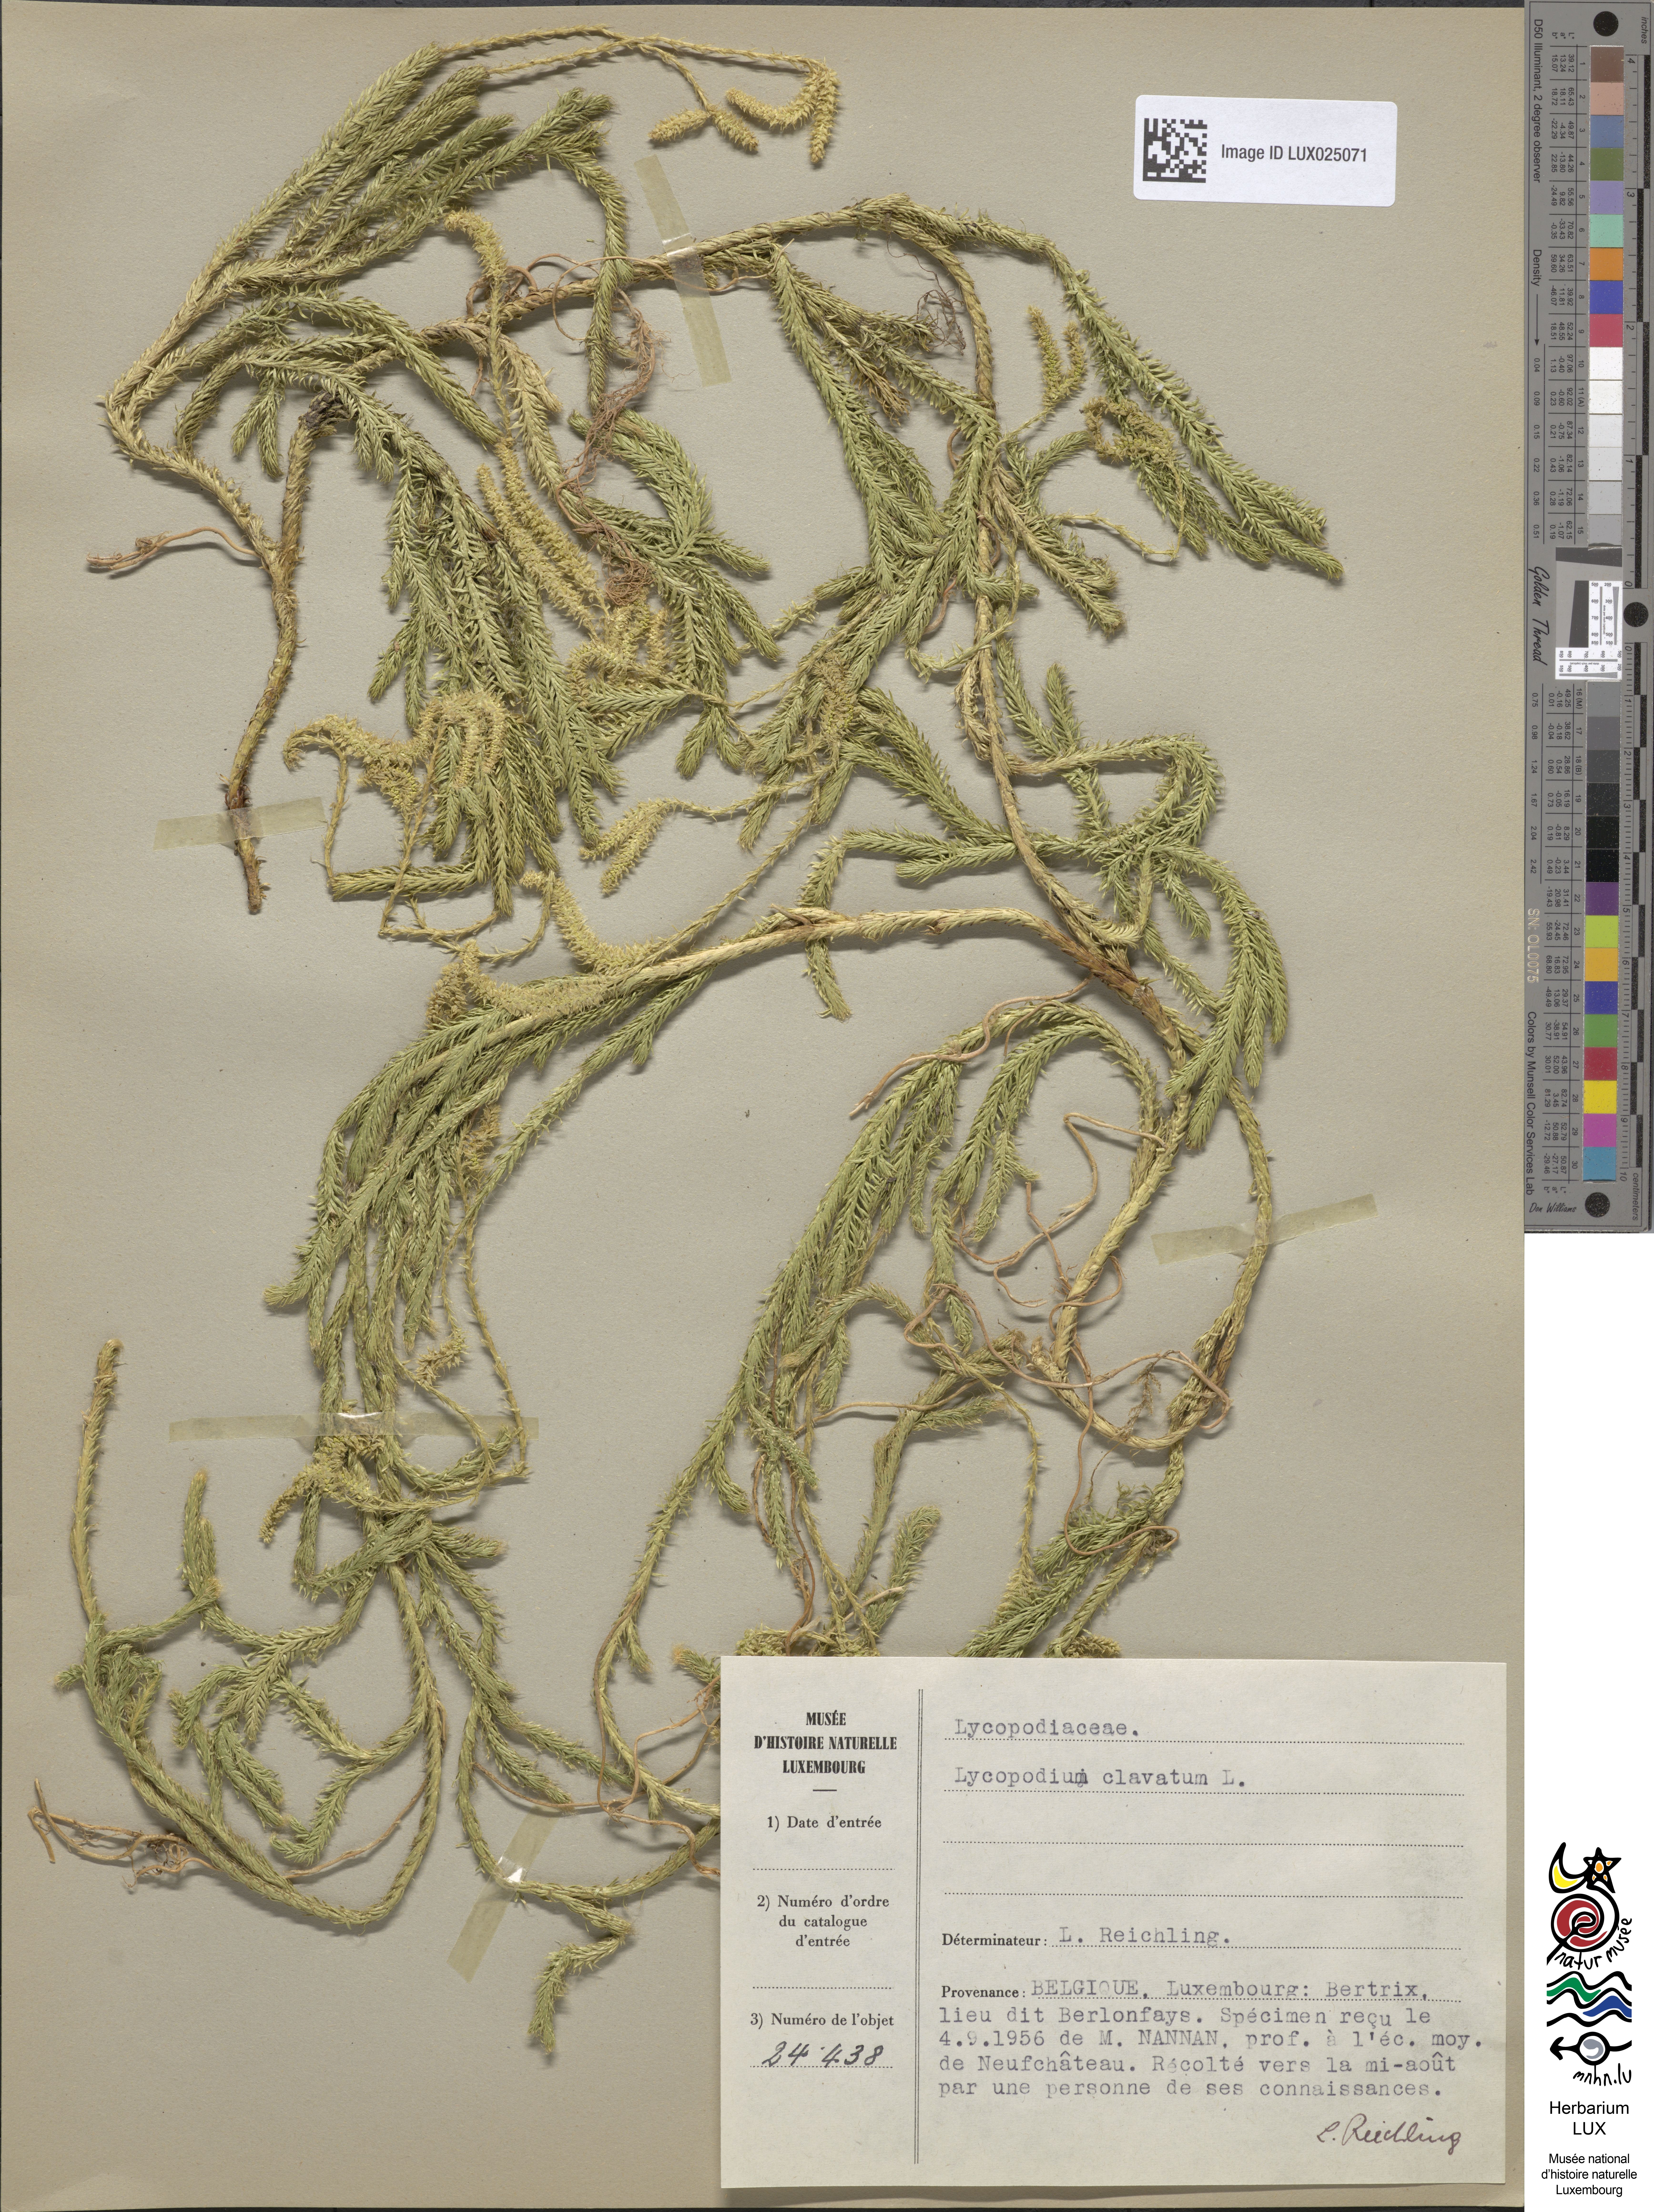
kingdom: Plantae
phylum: Tracheophyta
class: Lycopodiopsida
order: Lycopodiales
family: Lycopodiaceae
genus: Lycopodium
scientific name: Lycopodium clavatum
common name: Stag's-horn clubmoss
